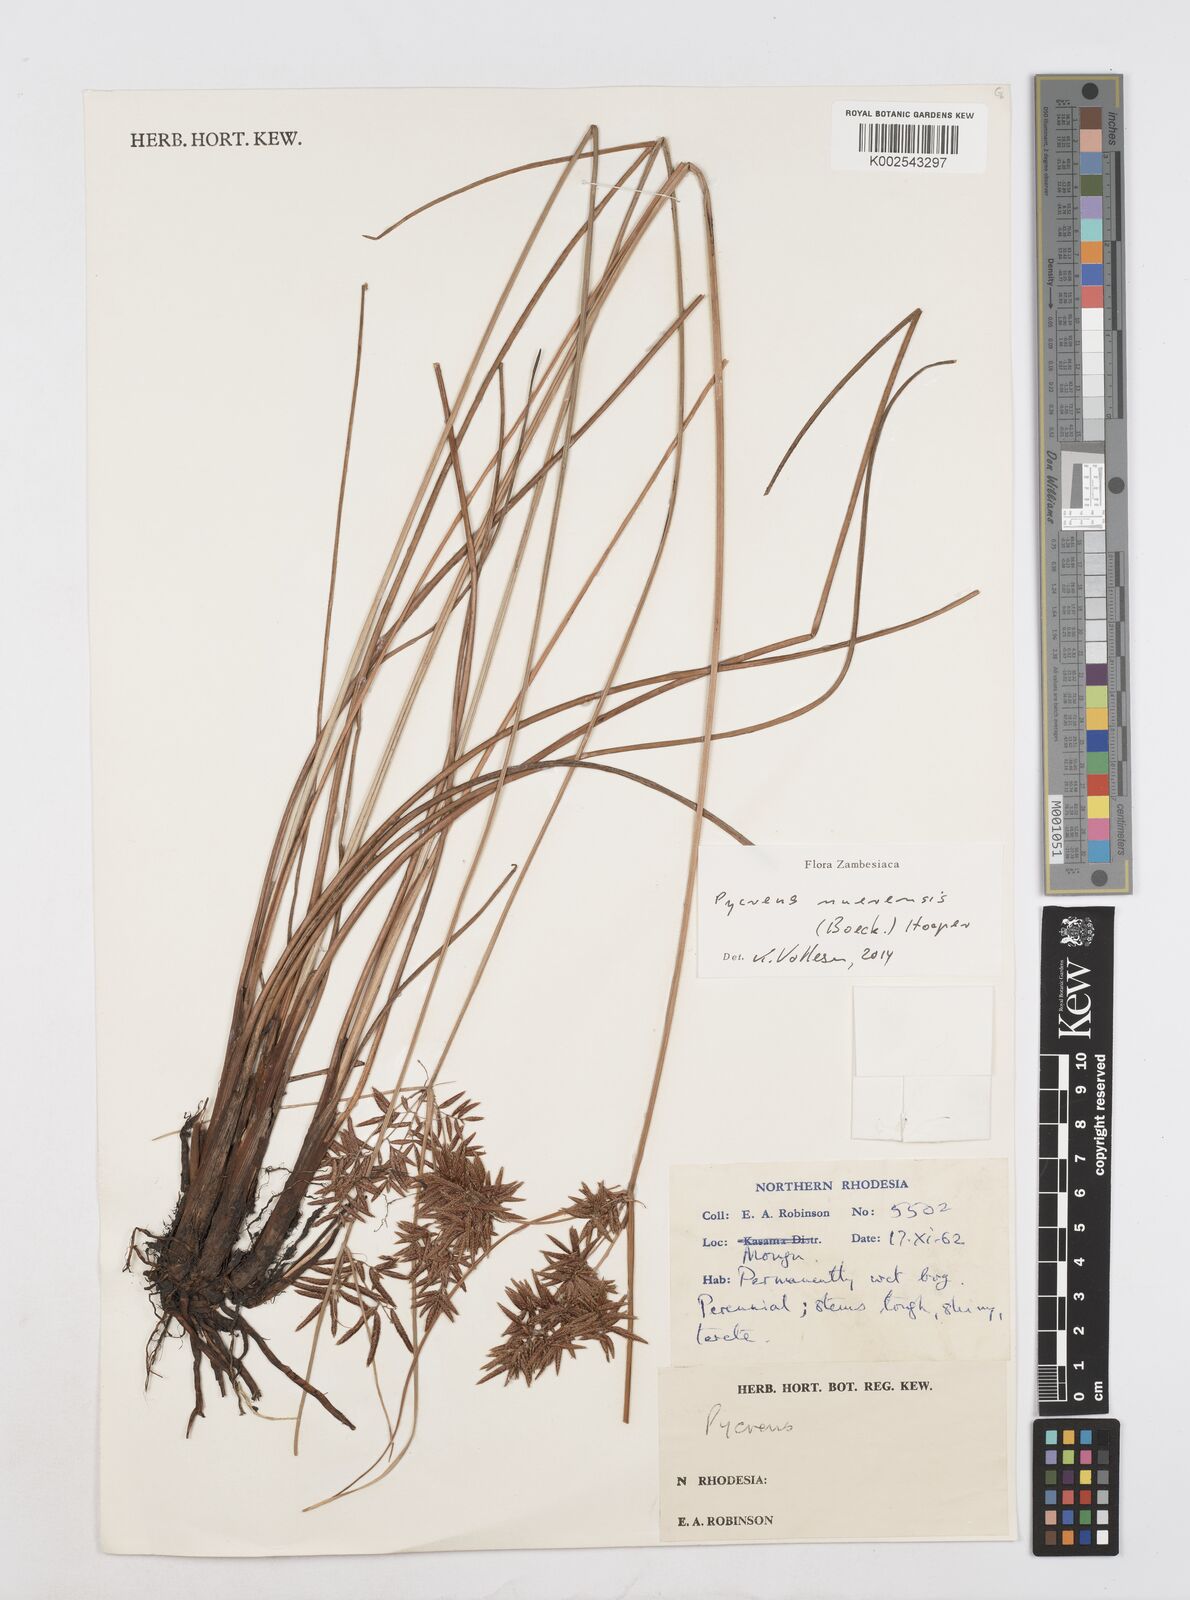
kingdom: Plantae
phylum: Tracheophyta
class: Liliopsida
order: Poales
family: Cyperaceae
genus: Cyperus
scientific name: Cyperus nuerensis
